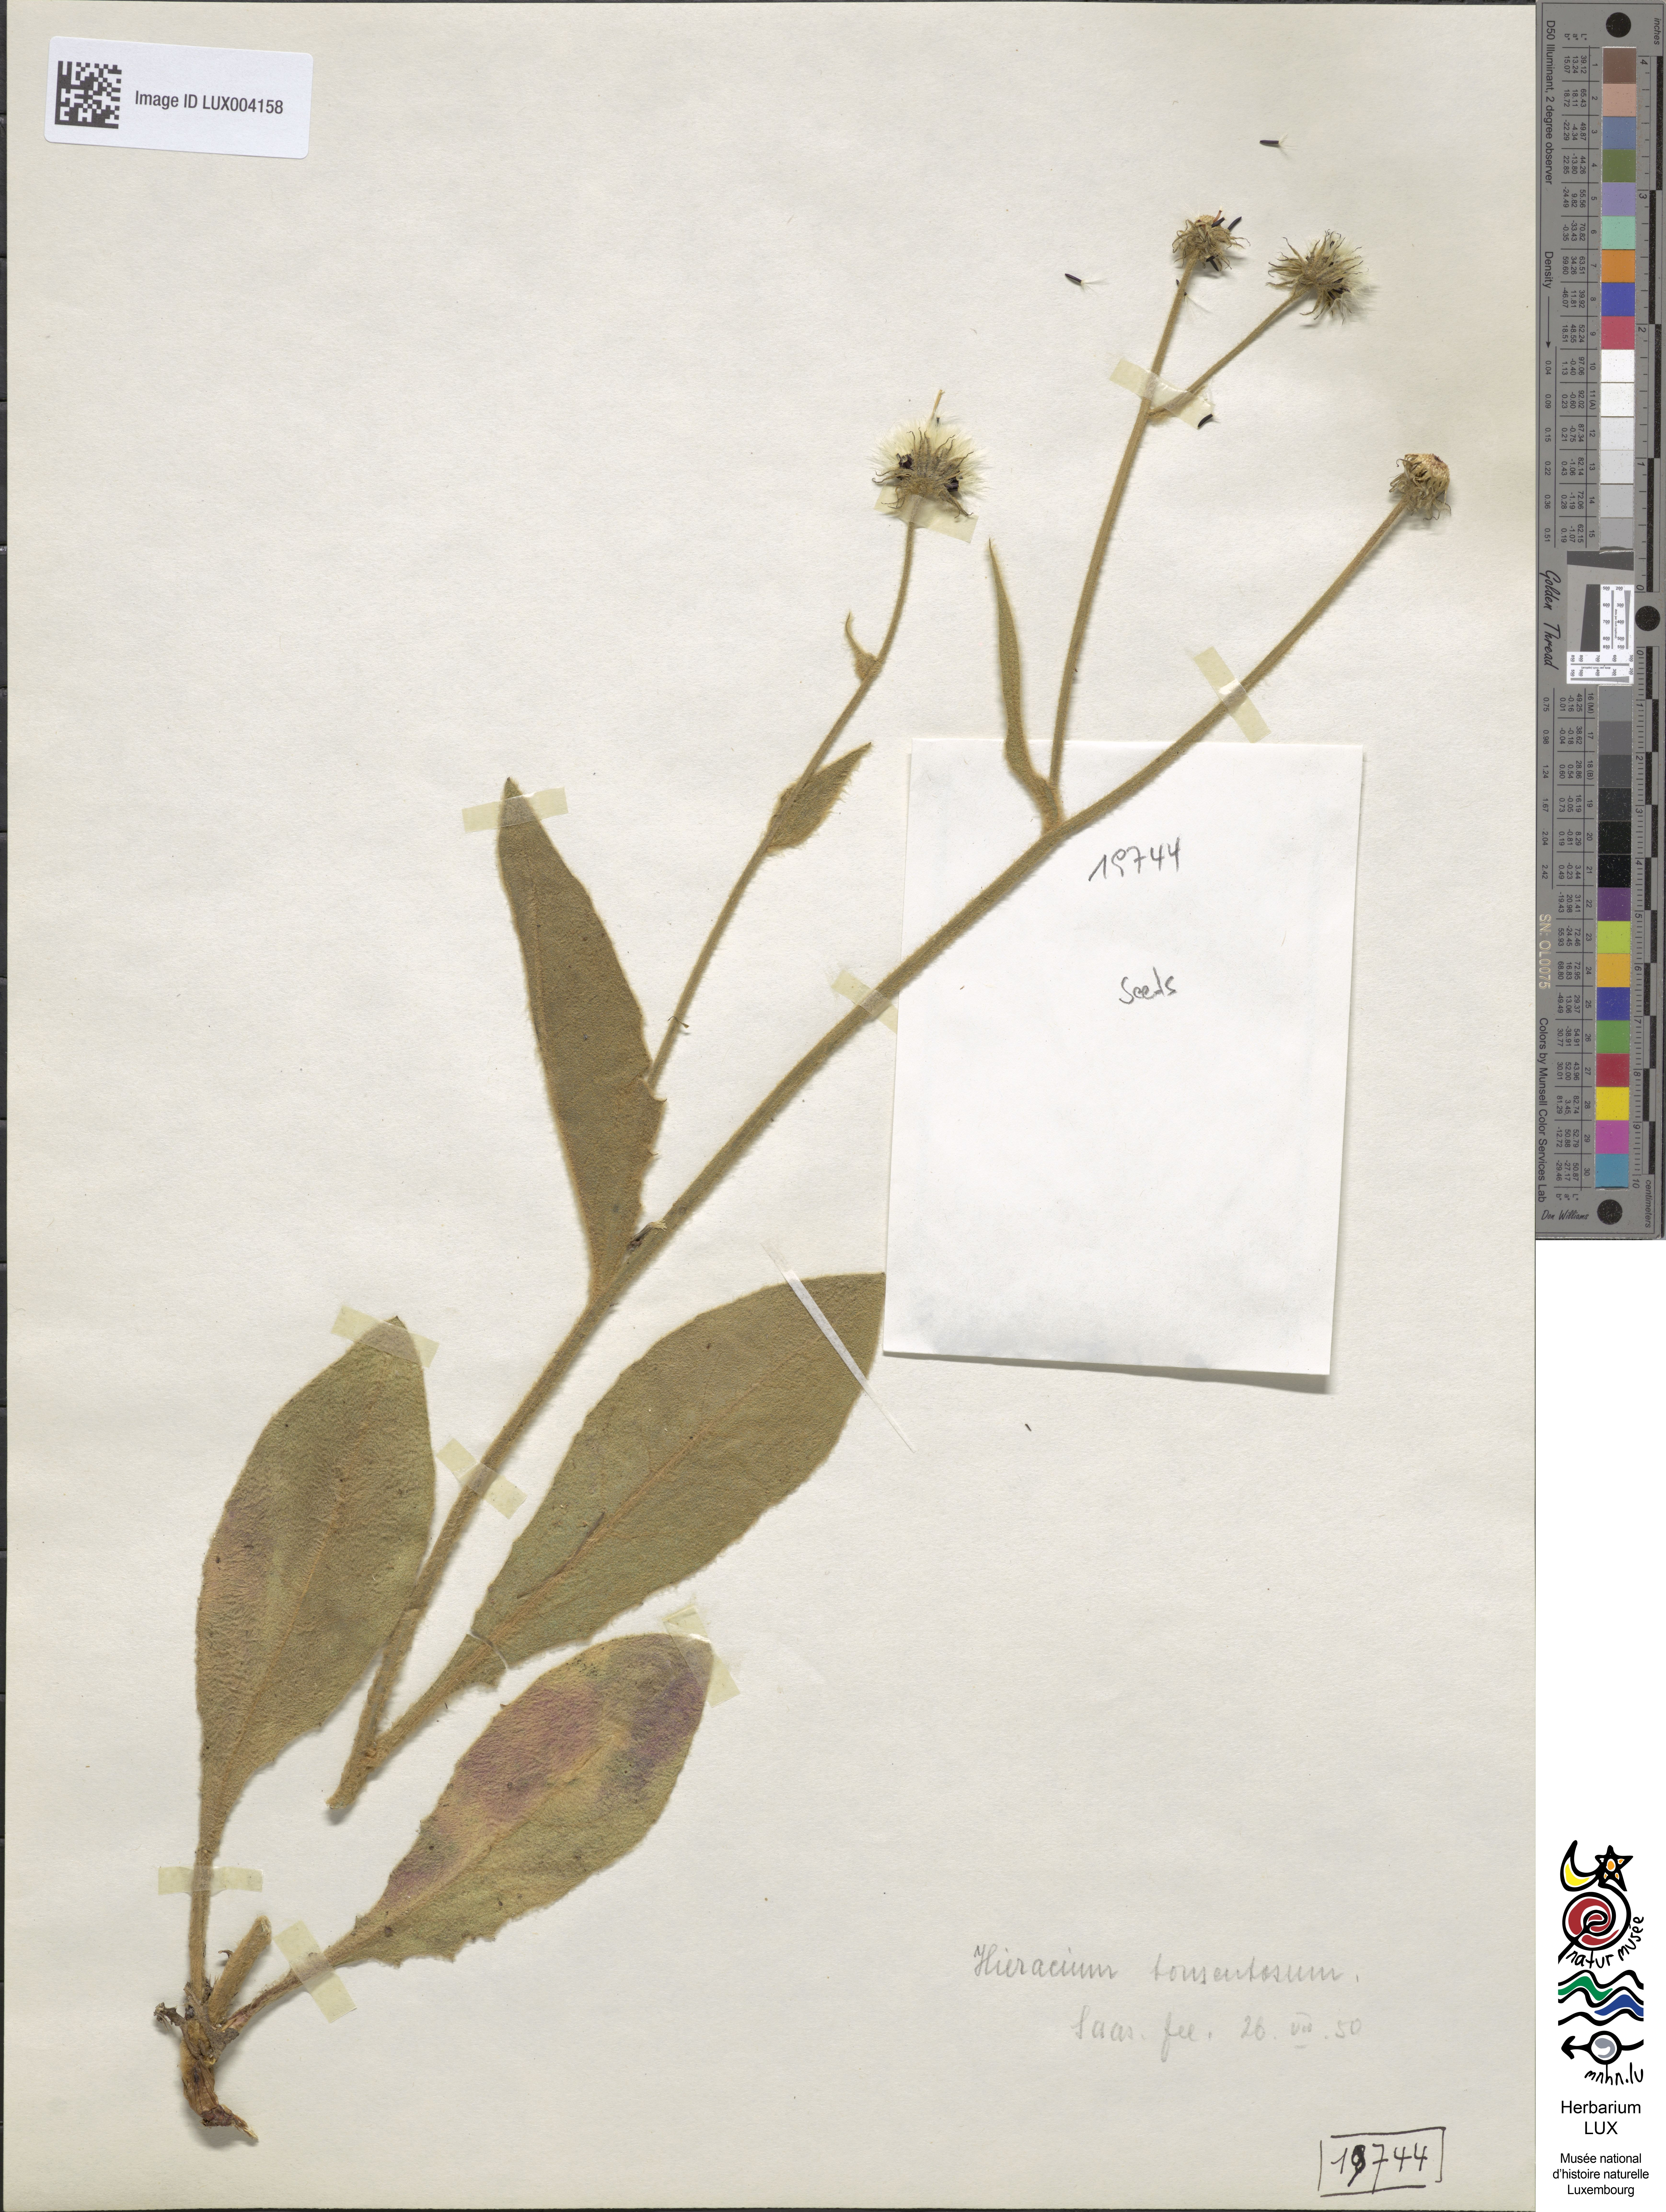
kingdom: Plantae
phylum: Tracheophyta
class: Magnoliopsida
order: Asterales
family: Asteraceae
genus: Anacyclus
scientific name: Anacyclus clavatus
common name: Whitebuttons
